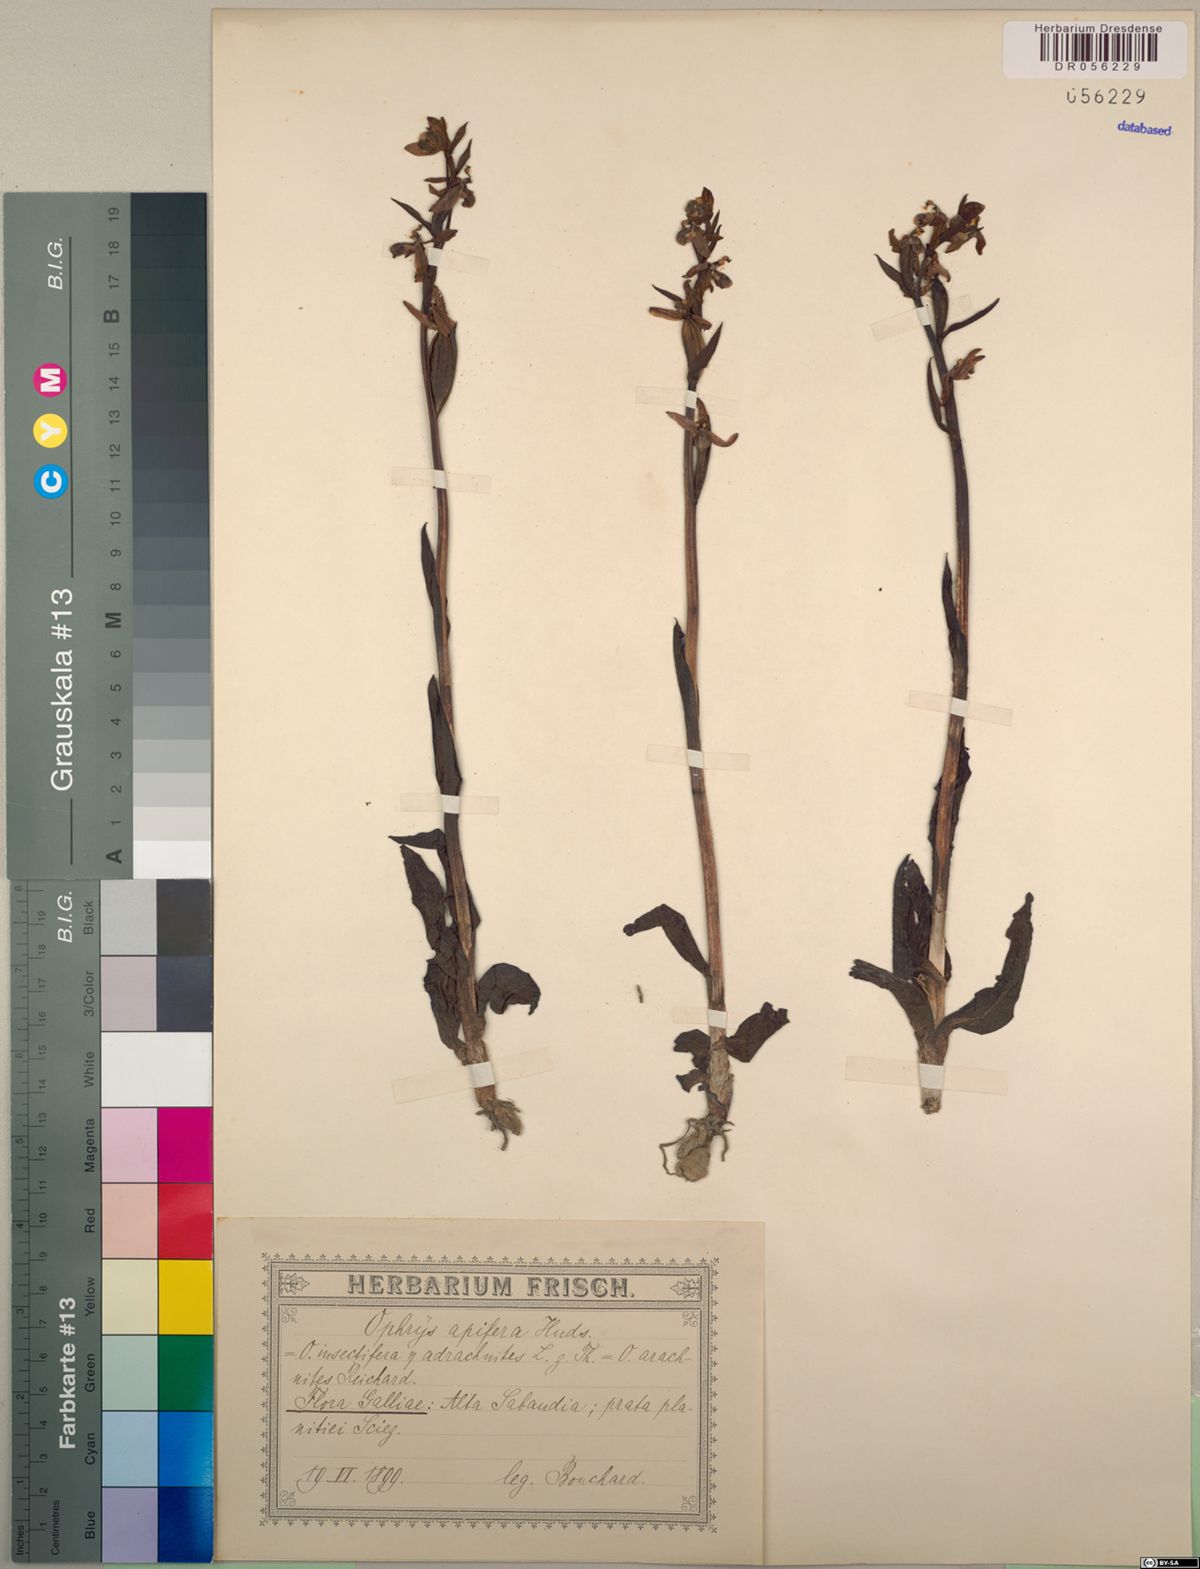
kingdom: Plantae
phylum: Tracheophyta
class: Liliopsida
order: Asparagales
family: Orchidaceae
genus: Ophrys
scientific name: Ophrys apifera
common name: Bee orchid
